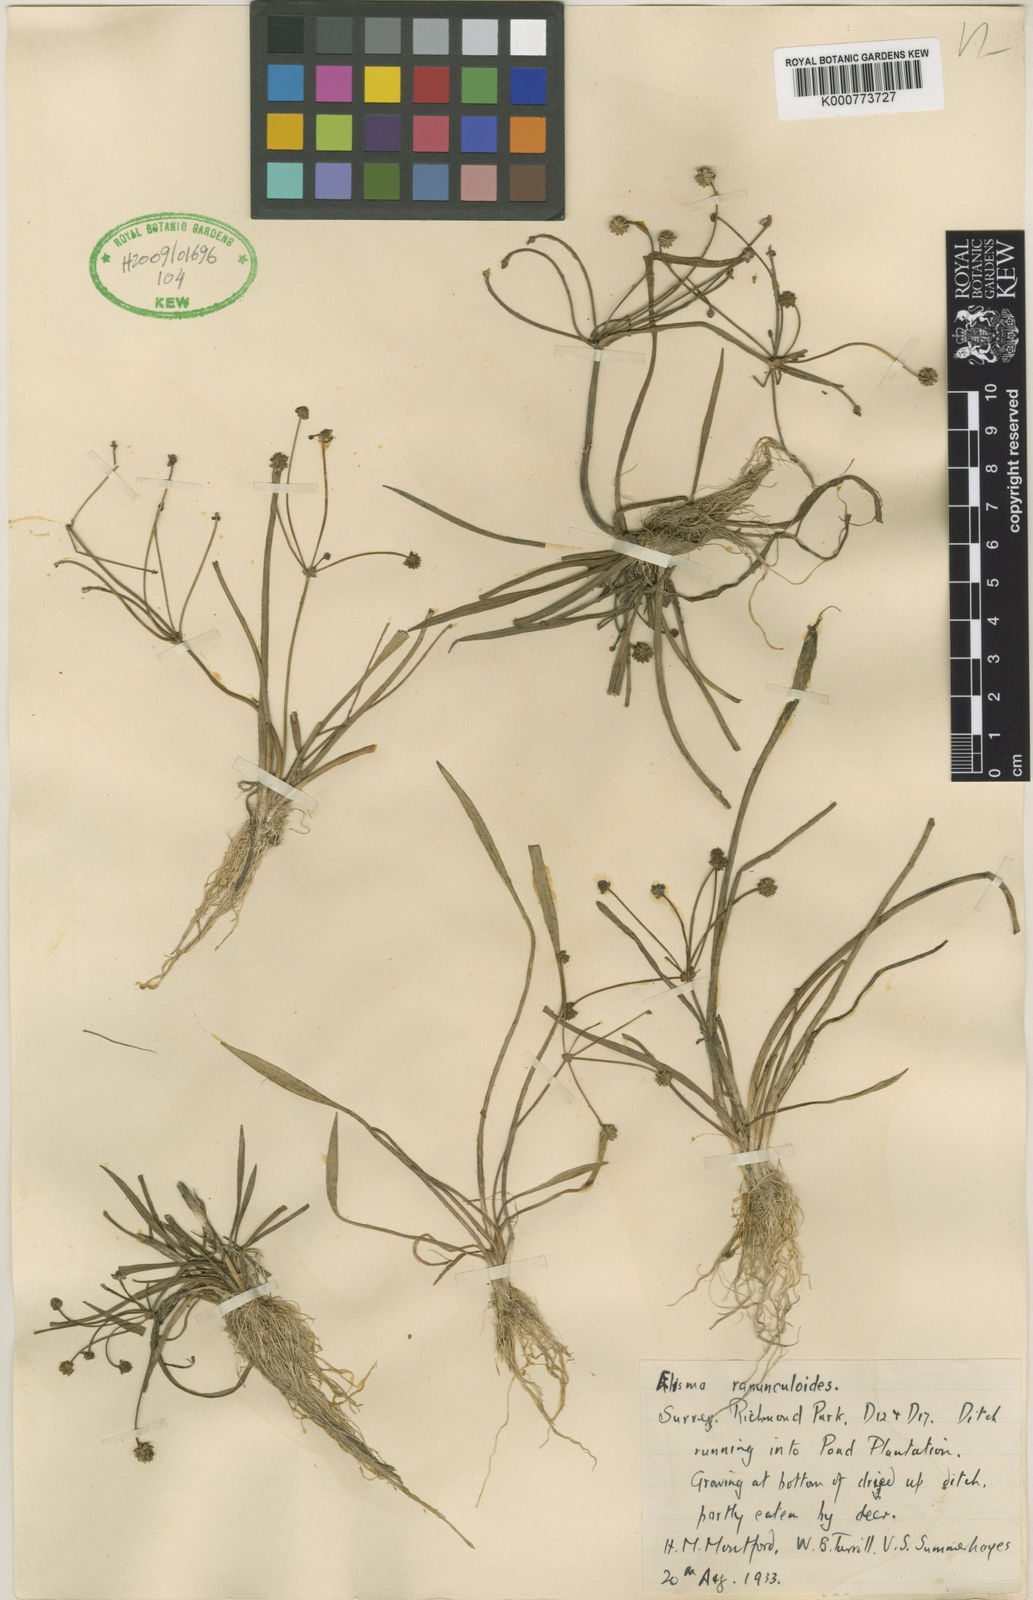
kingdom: Plantae
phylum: Tracheophyta
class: Liliopsida
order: Alismatales
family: Alismataceae
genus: Baldellia
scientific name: Baldellia ranunculoides
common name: Lesser water-plantain
